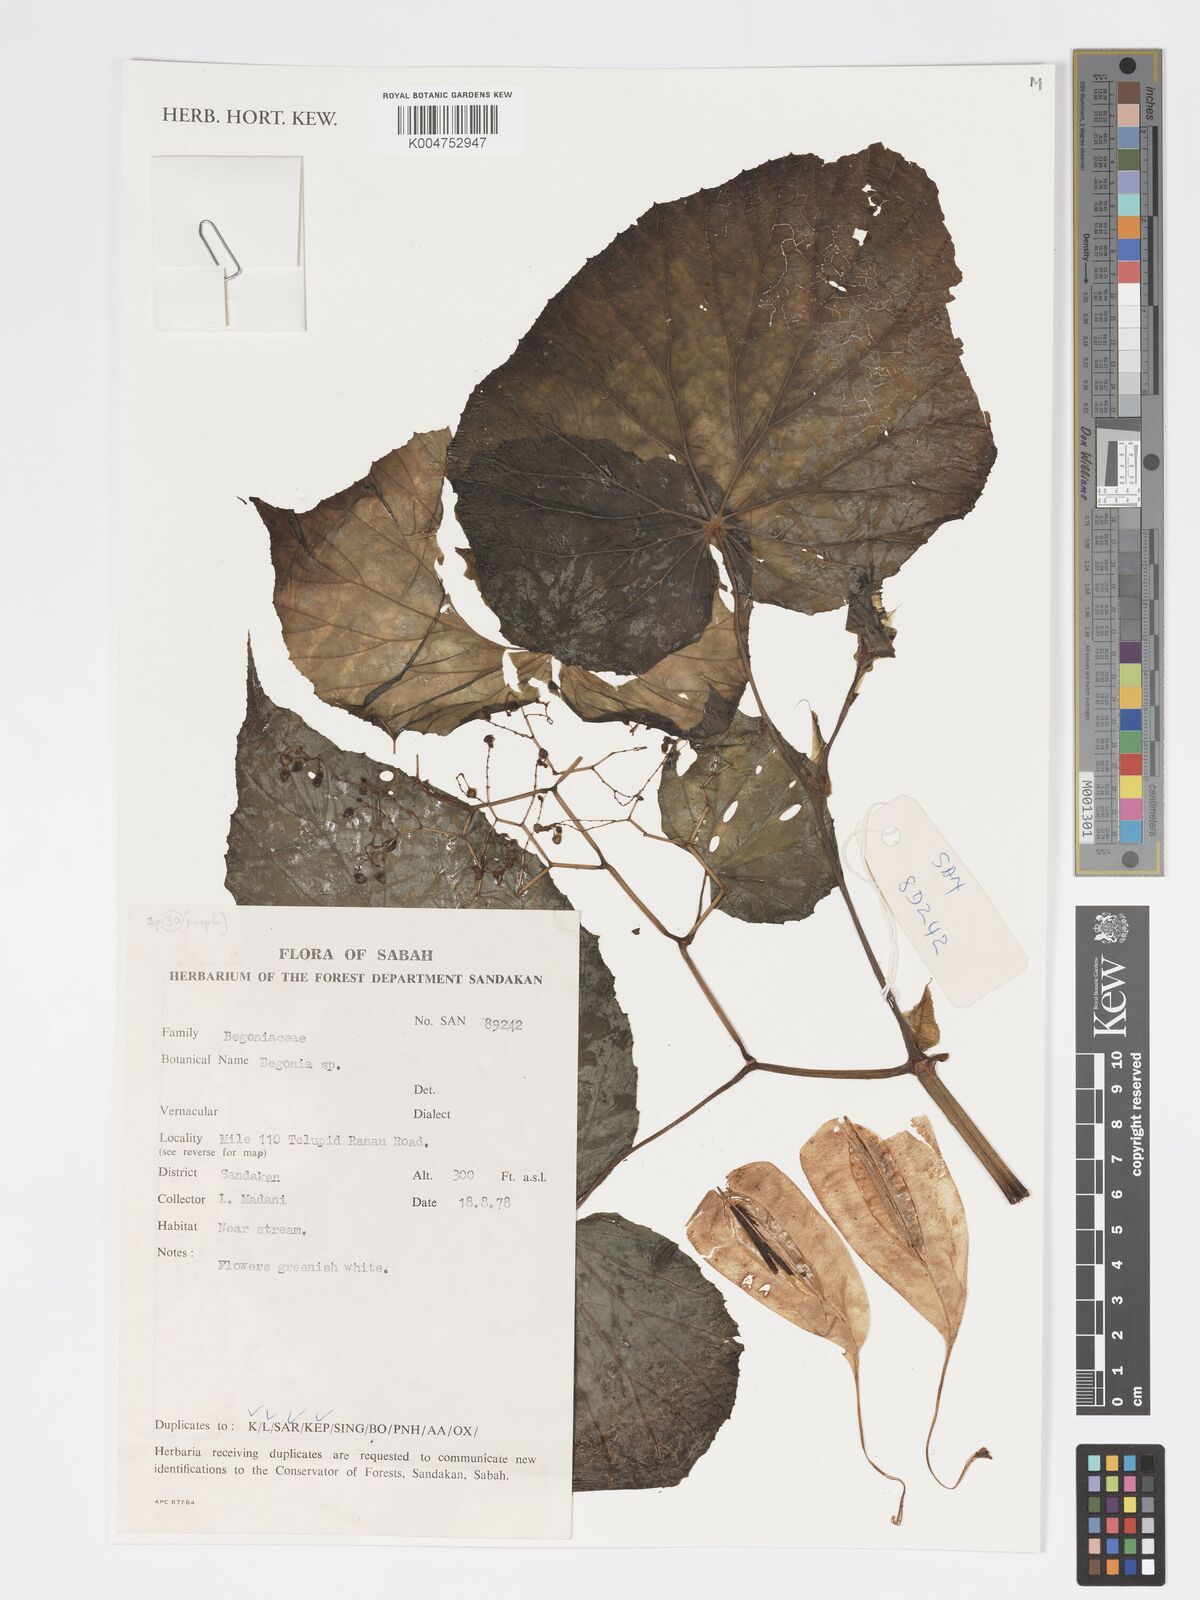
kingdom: Plantae
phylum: Tracheophyta
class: Magnoliopsida
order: Cucurbitales
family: Begoniaceae
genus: Begonia
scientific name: Begonia
